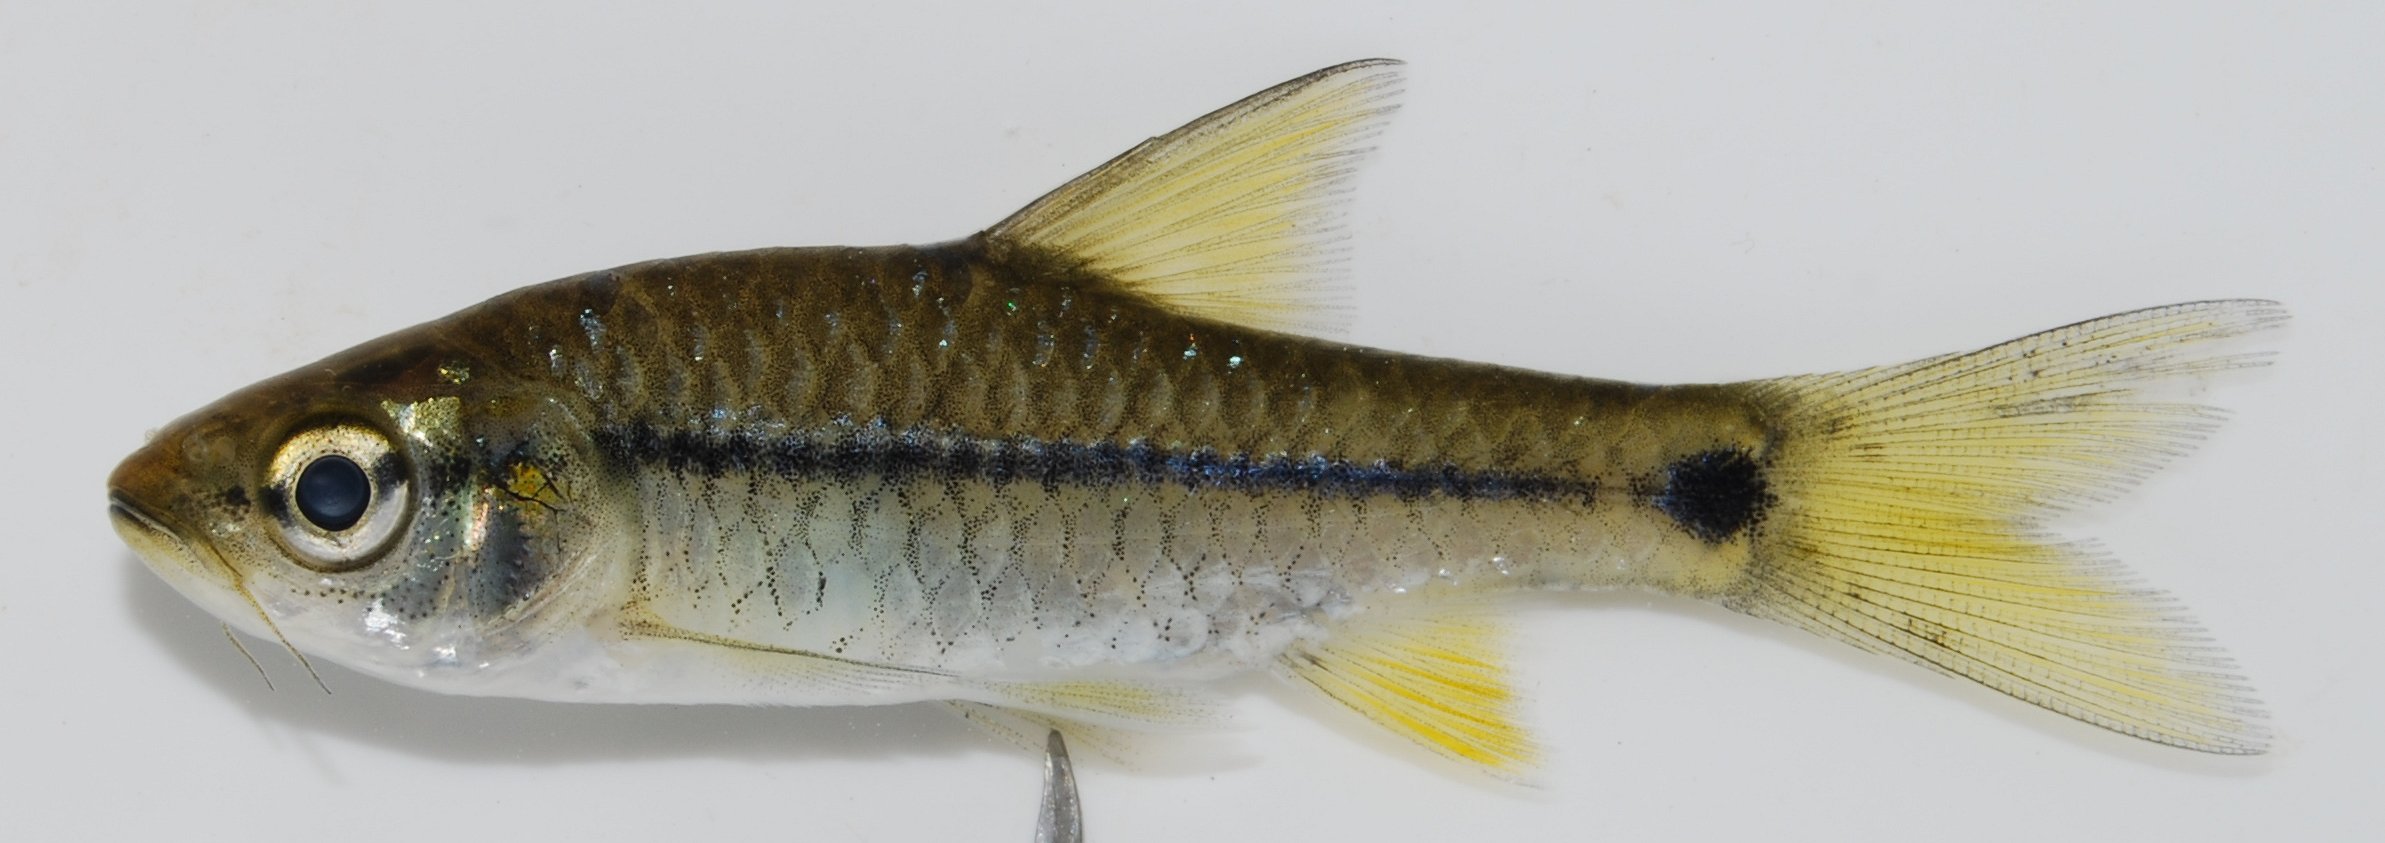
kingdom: Animalia
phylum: Chordata
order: Cypriniformes
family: Cyprinidae
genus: Enteromius
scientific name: Enteromius kerstenii
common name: Redspot barb
